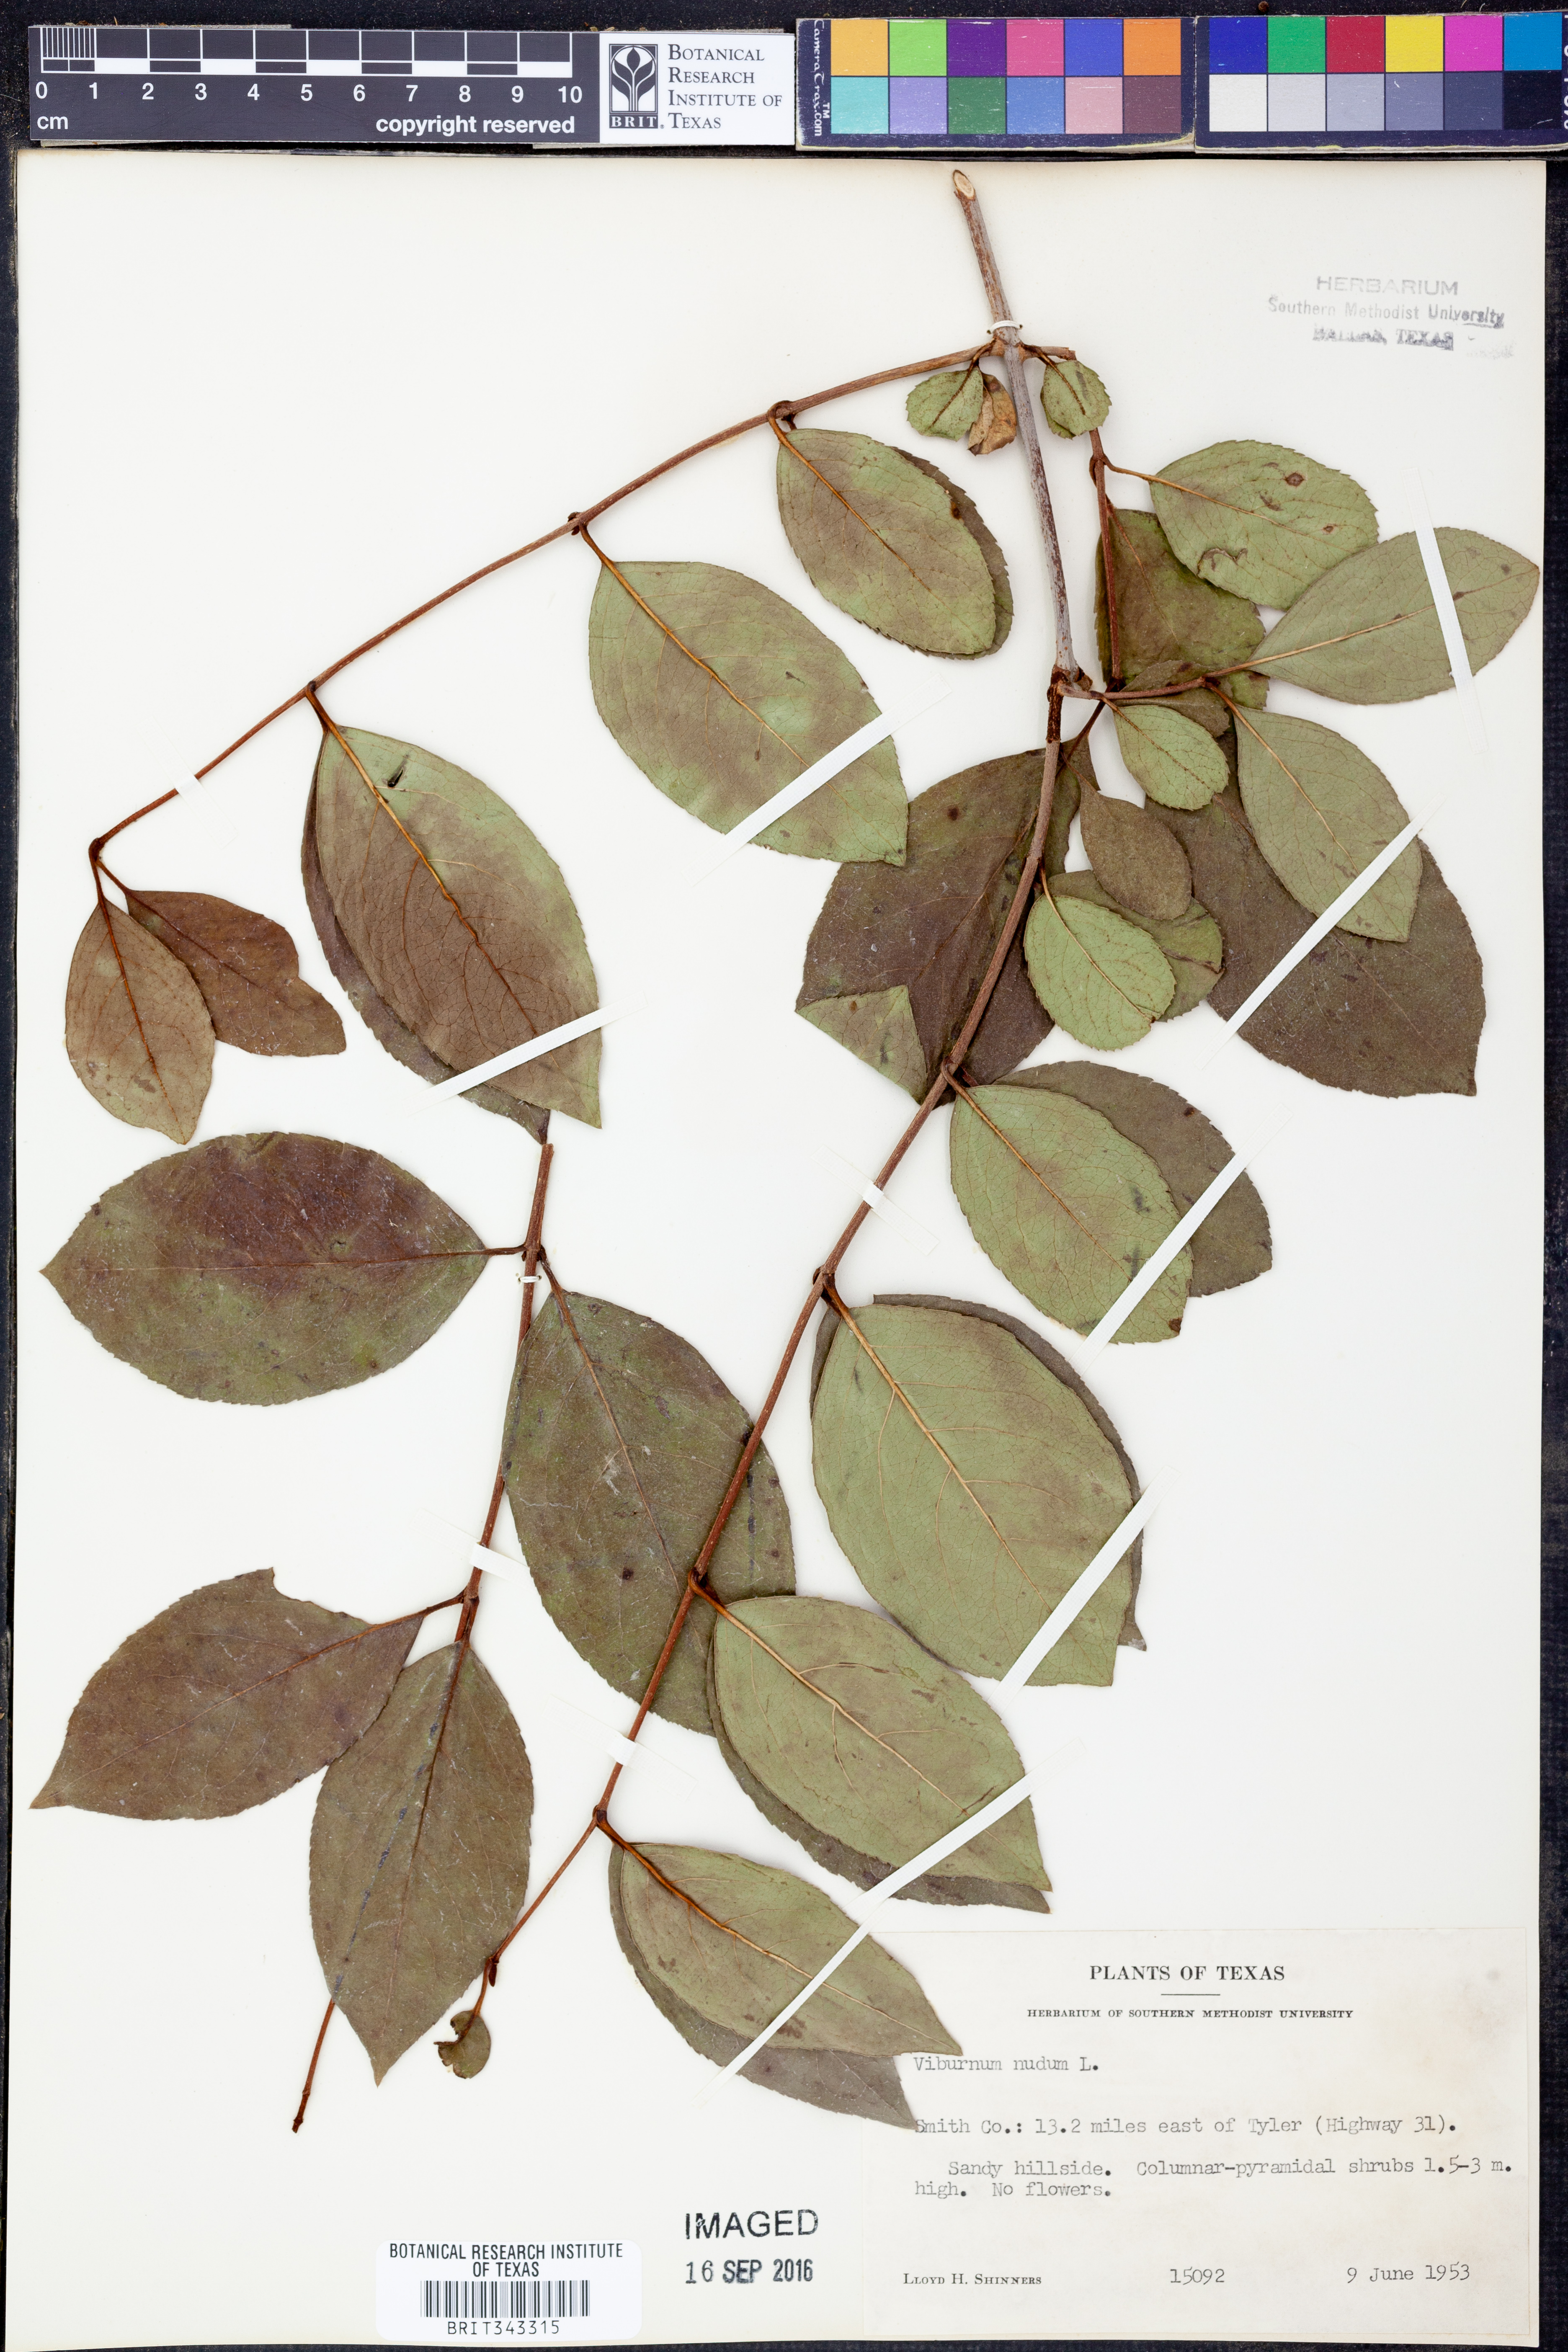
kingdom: Plantae
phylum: Tracheophyta
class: Magnoliopsida
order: Dipsacales
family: Viburnaceae
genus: Viburnum
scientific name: Viburnum nudum
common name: Possum haw
